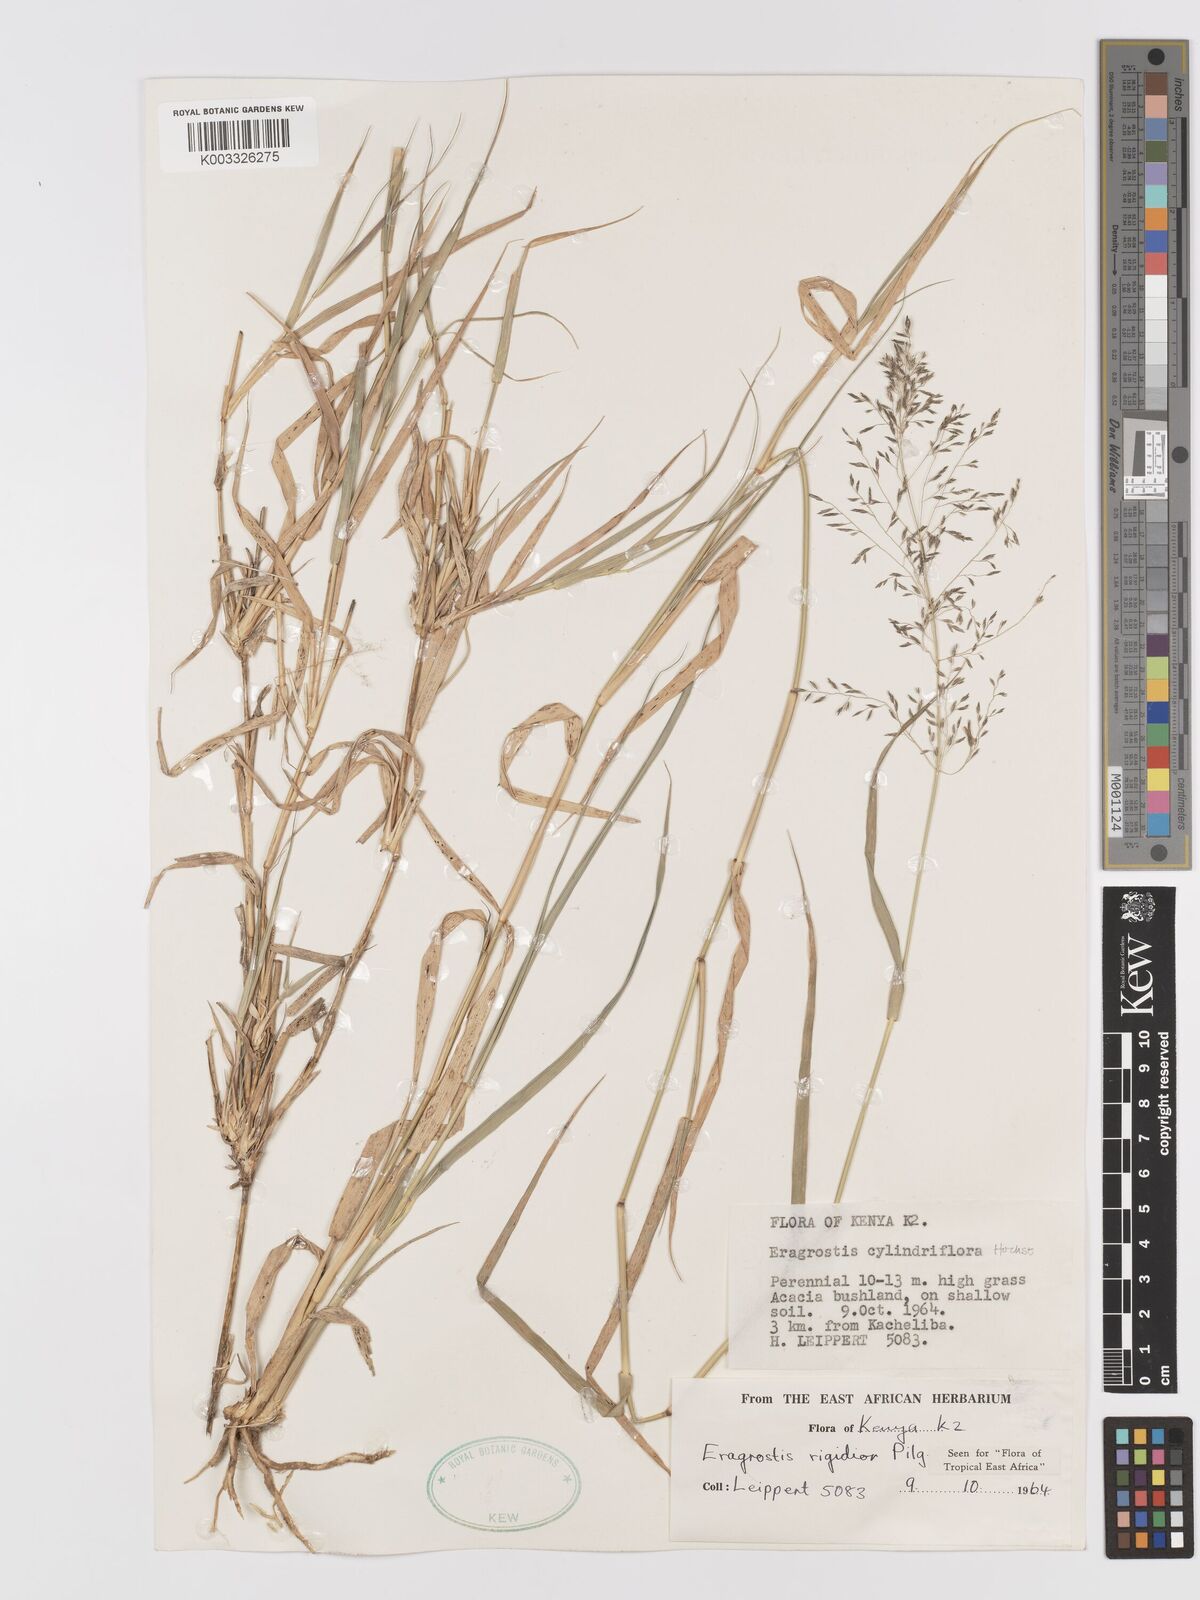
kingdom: Plantae
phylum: Tracheophyta
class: Liliopsida
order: Poales
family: Poaceae
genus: Eragrostis
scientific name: Eragrostis cylindriflora
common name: Cylinderflower lovegrass
